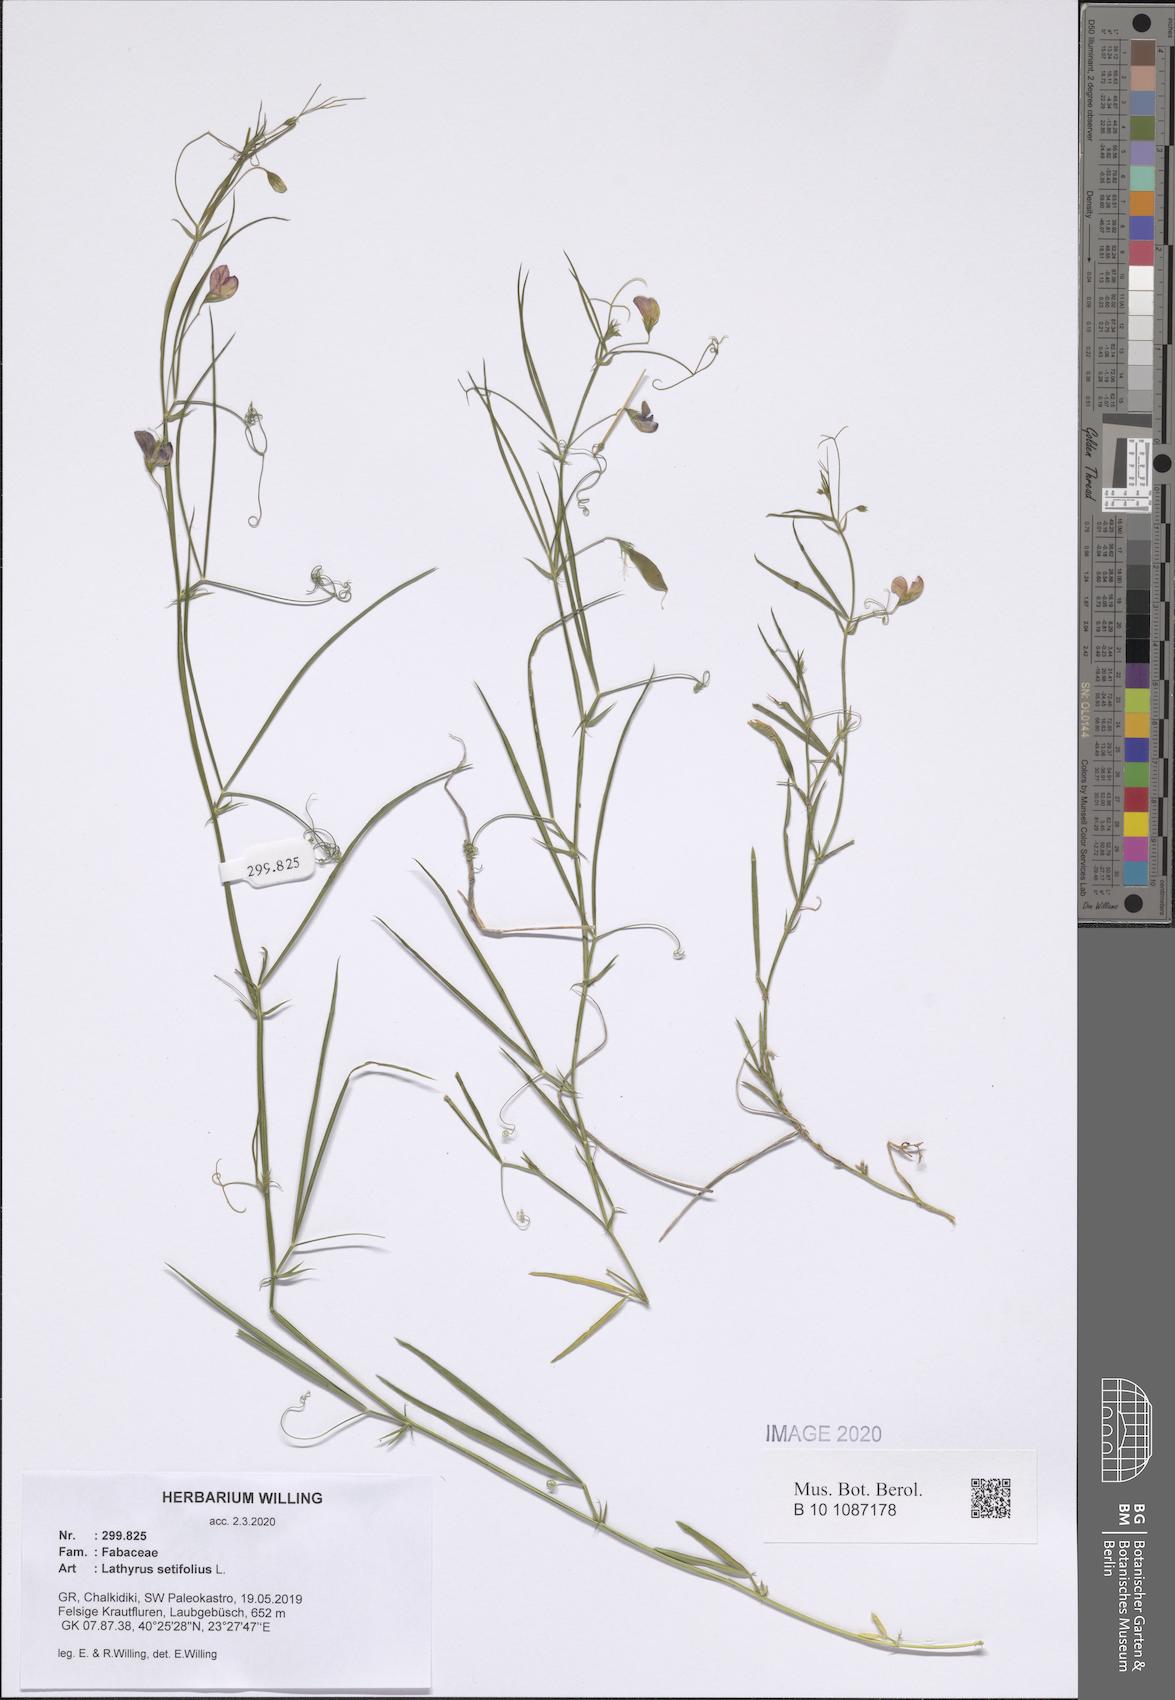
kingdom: Plantae
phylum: Tracheophyta
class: Magnoliopsida
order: Fabales
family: Fabaceae
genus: Lathyrus
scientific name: Lathyrus setifolius
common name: Brown vetchling
